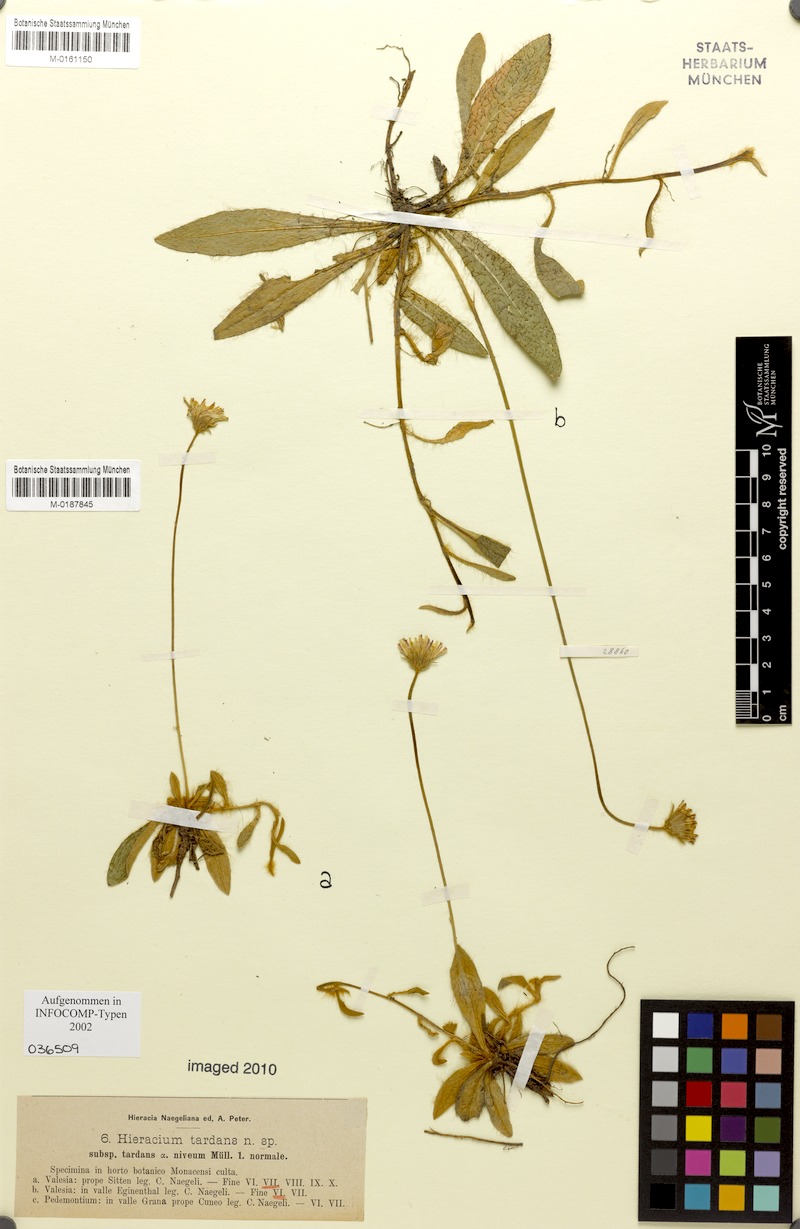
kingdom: Plantae
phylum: Tracheophyta
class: Magnoliopsida
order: Asterales
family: Asteraceae
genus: Pilosella
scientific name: Pilosella tardans
